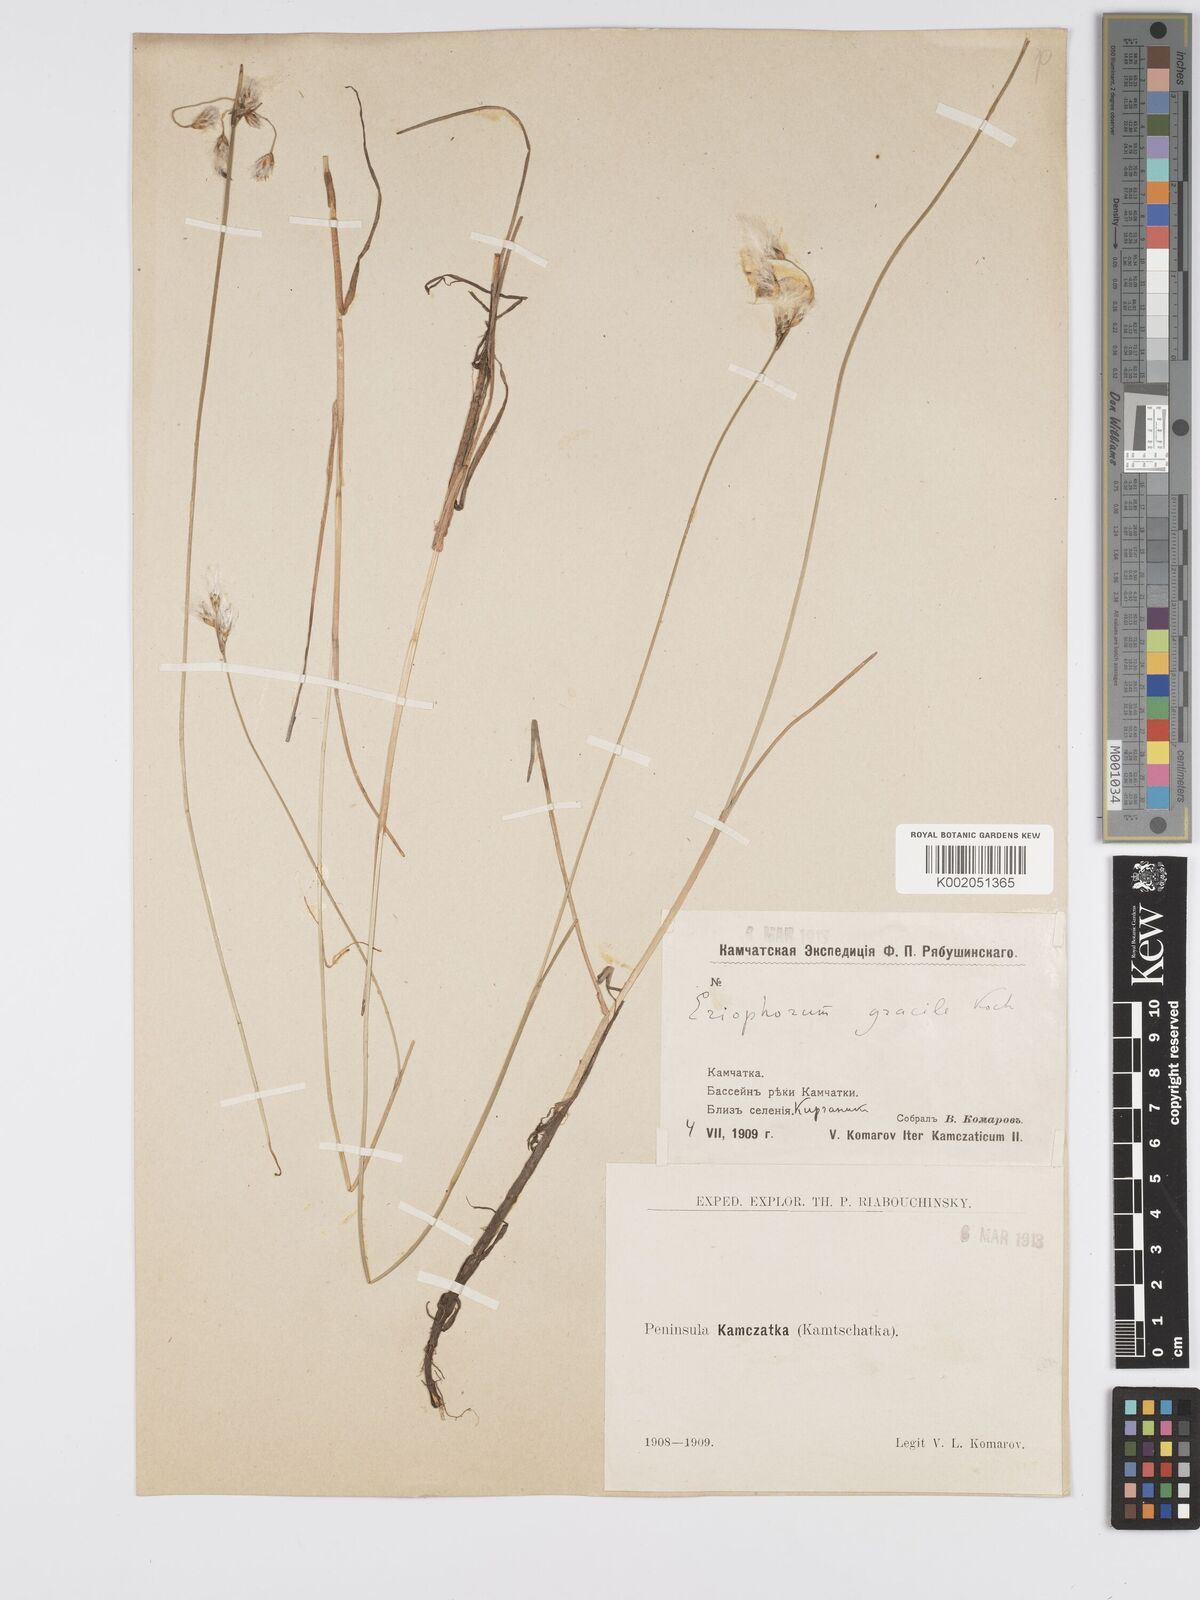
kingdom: Plantae
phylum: Tracheophyta
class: Liliopsida
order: Poales
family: Cyperaceae
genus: Eriophorum
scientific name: Eriophorum gracile
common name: Slender cottongrass
